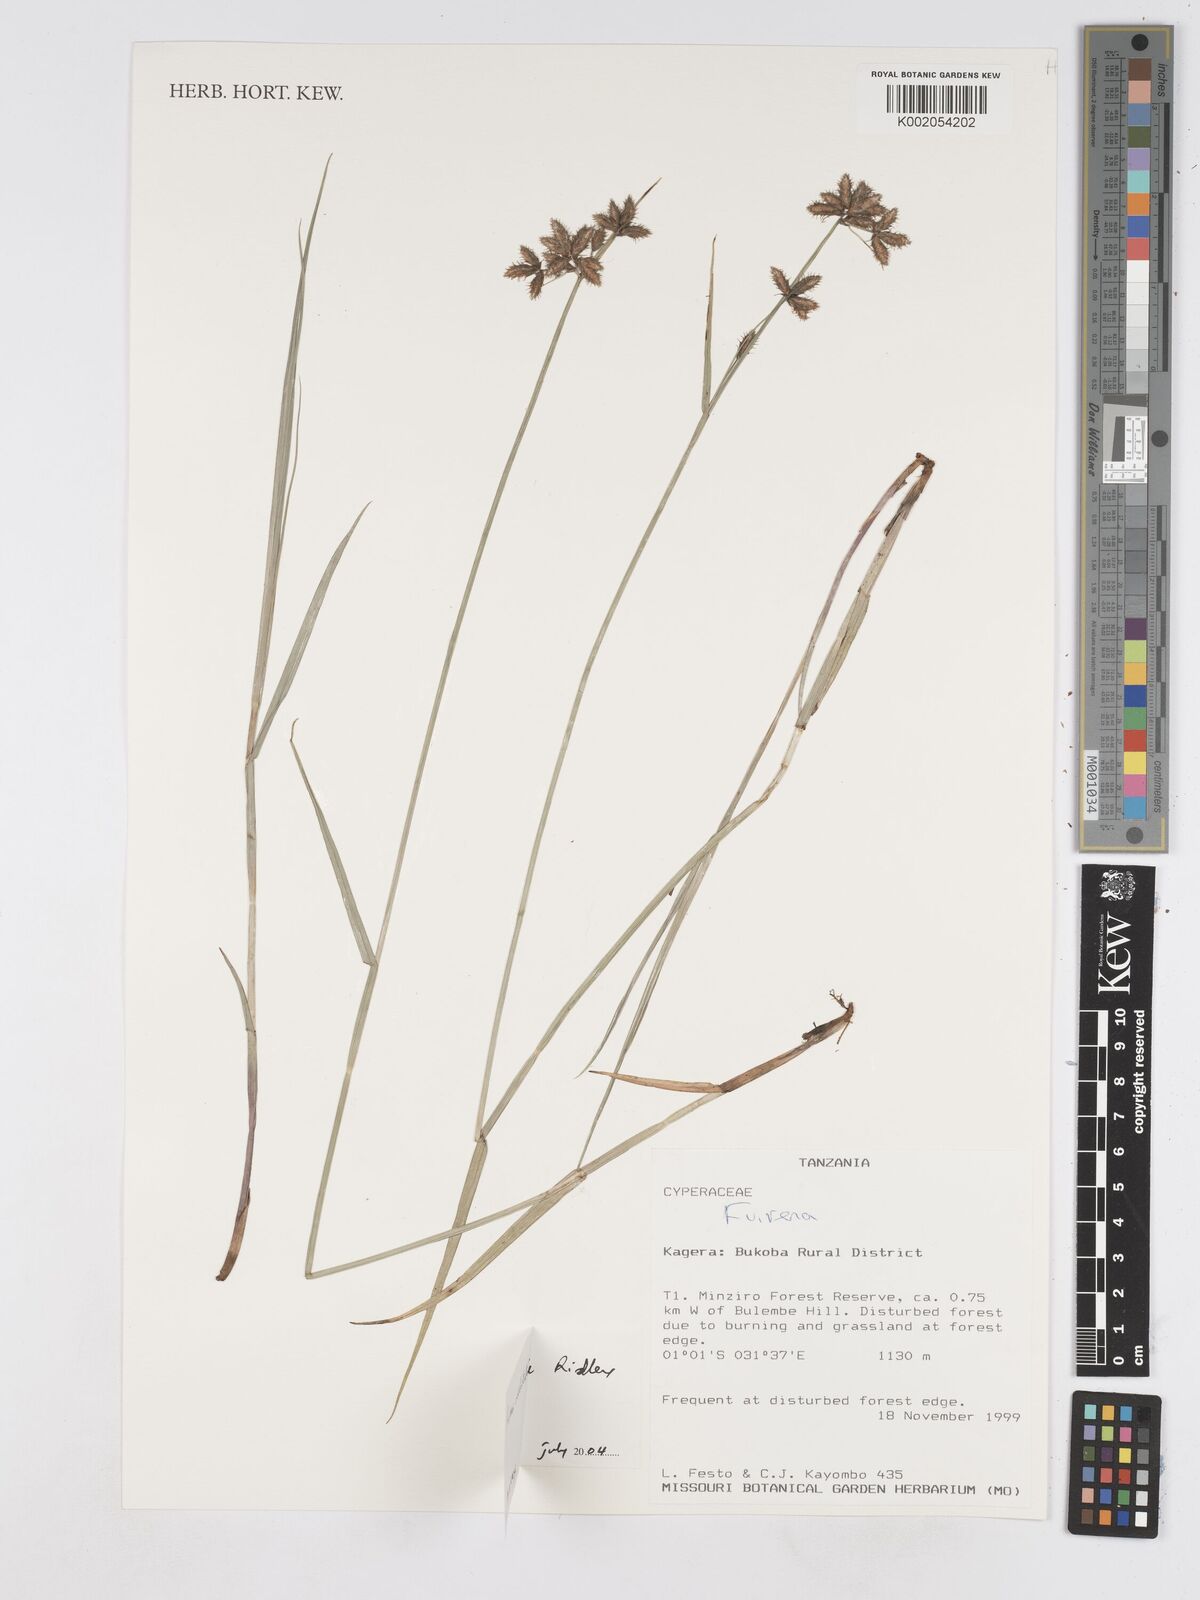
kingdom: Plantae
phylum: Tracheophyta
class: Liliopsida
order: Poales
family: Cyperaceae
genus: Fuirena
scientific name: Fuirena welwitschii
